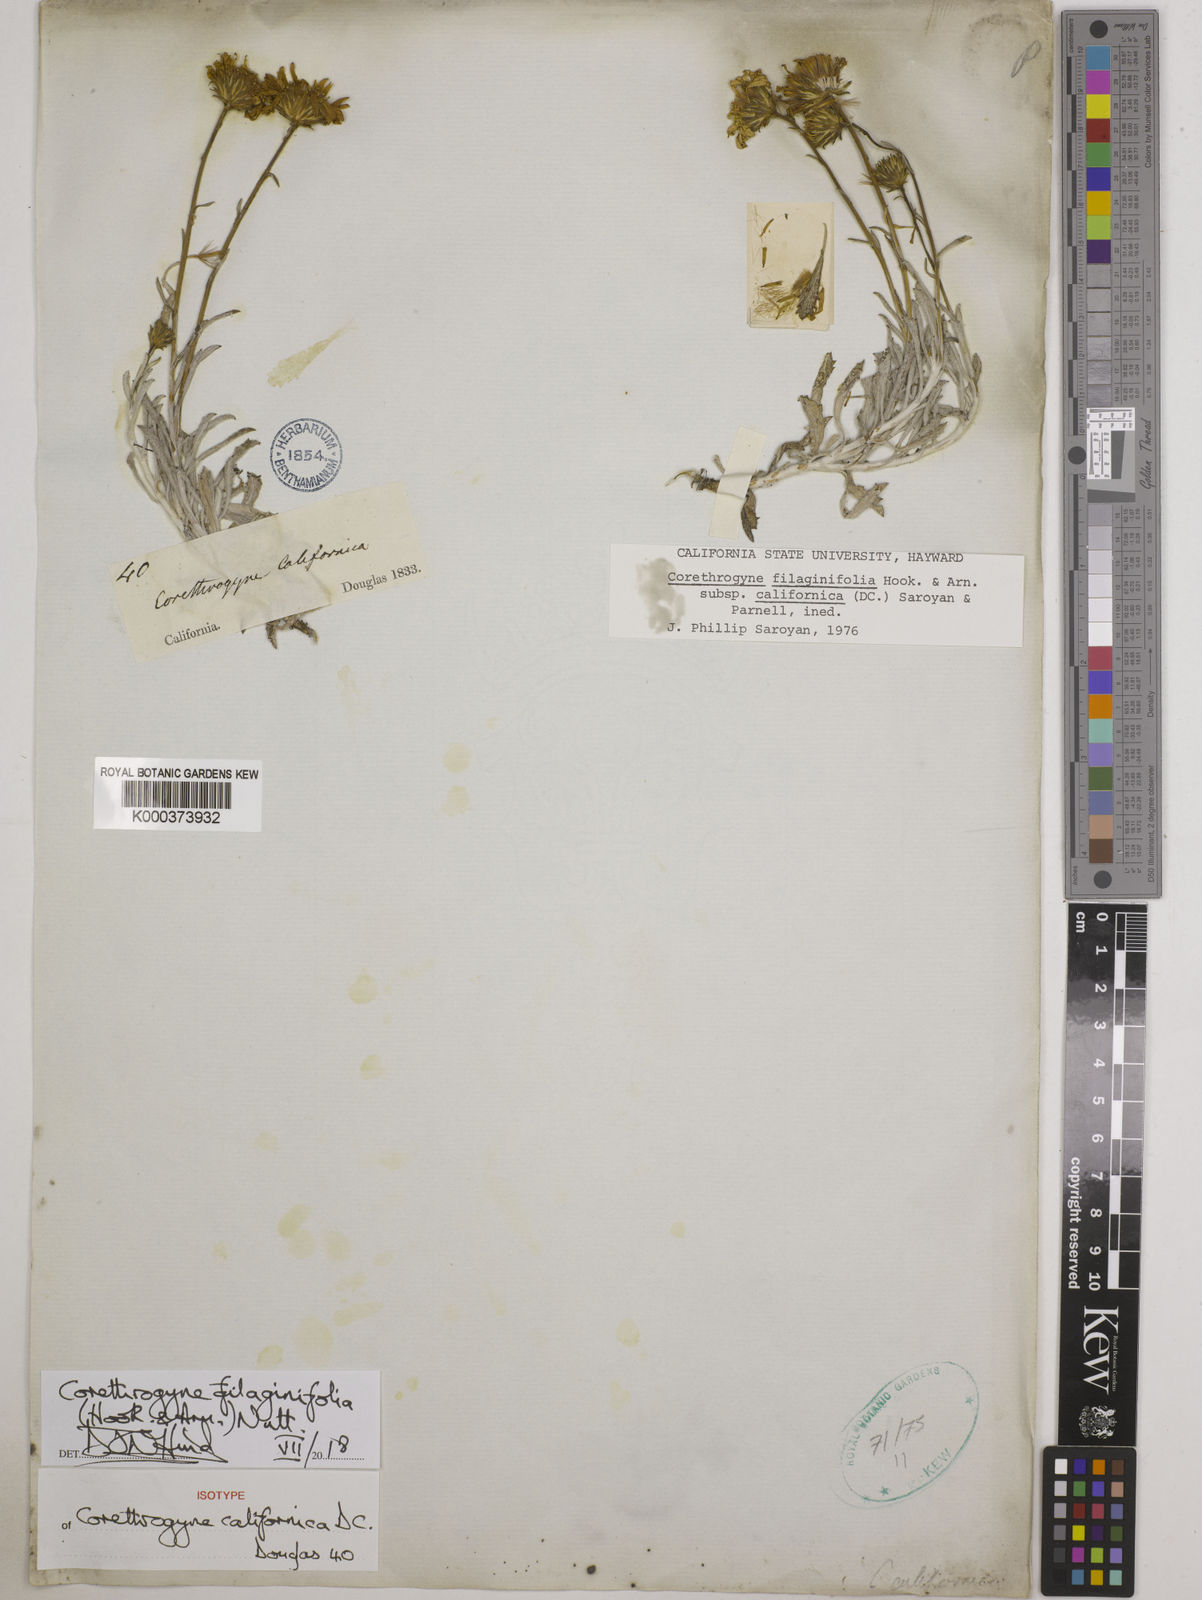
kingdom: Plantae
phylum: Tracheophyta
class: Magnoliopsida
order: Asterales
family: Asteraceae
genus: Corethrogyne
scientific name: Corethrogyne filaginifolia
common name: Sand-aster
